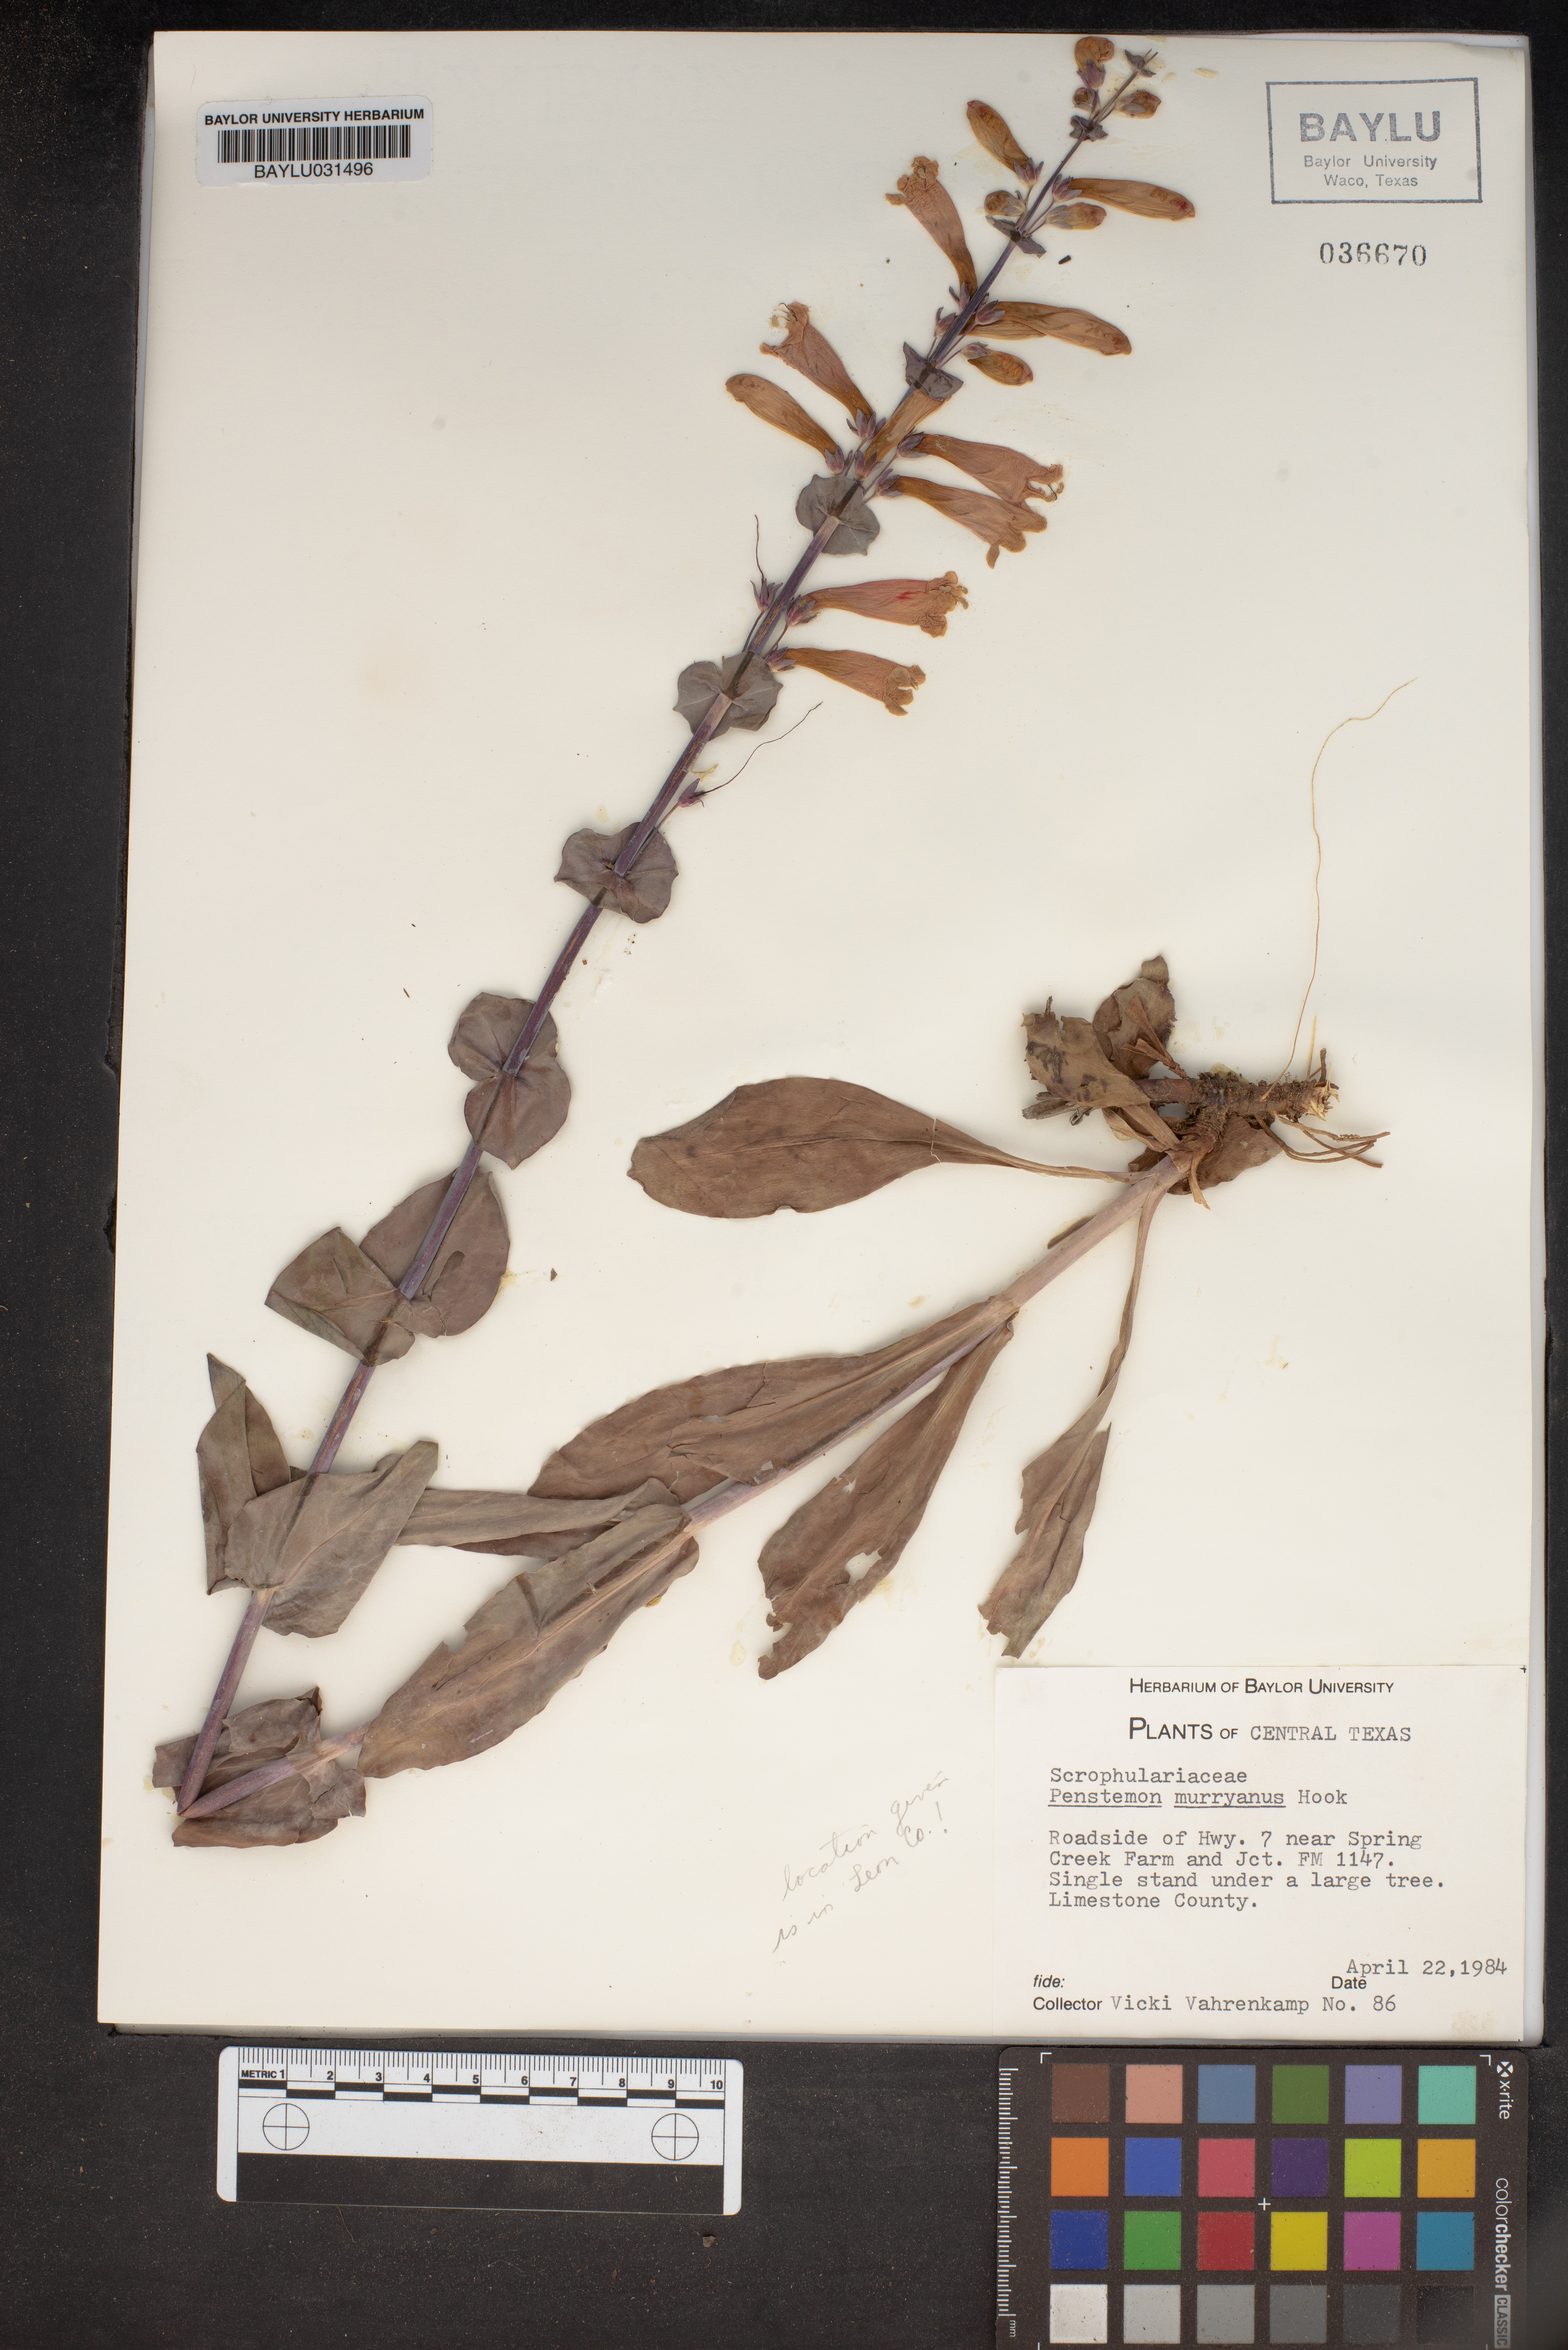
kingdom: Plantae
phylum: Tracheophyta
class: Magnoliopsida
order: Lamiales
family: Plantaginaceae
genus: Penstemon
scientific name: Penstemon murrayanus
